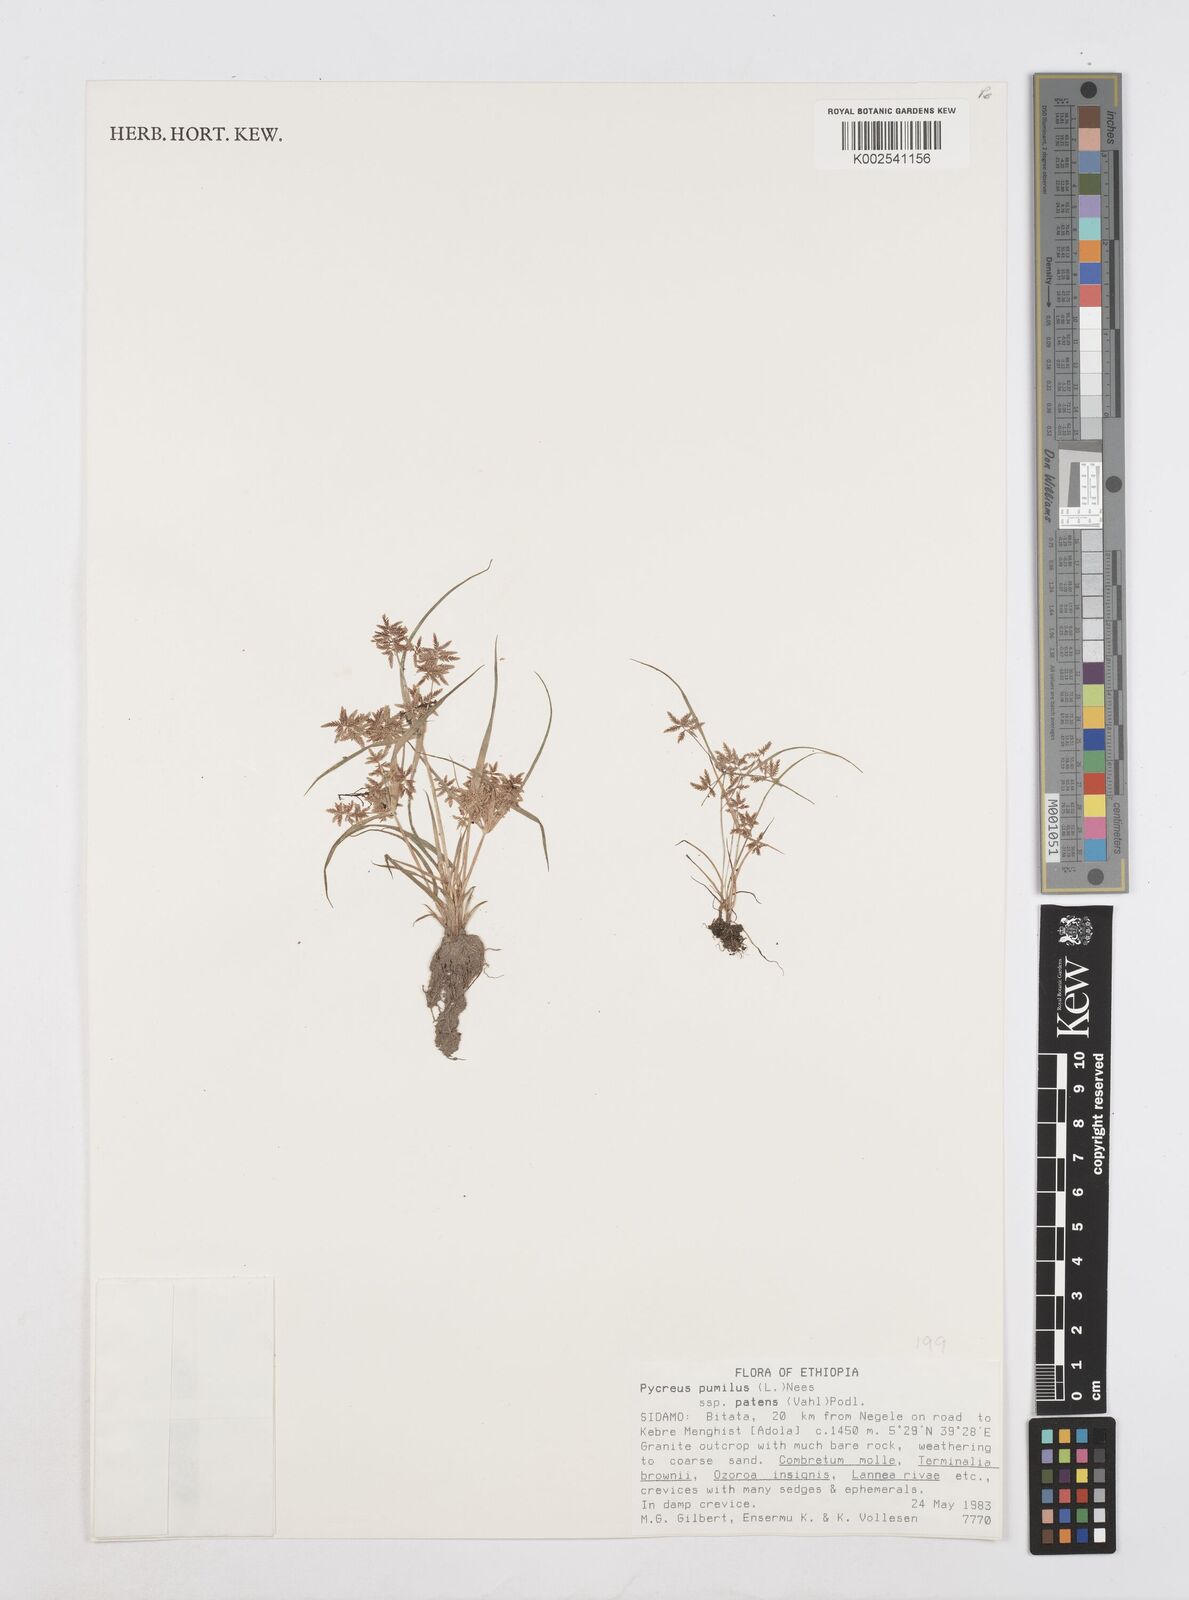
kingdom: Plantae
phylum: Tracheophyta
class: Liliopsida
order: Poales
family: Cyperaceae
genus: Cyperus
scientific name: Cyperus pumilus
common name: Low flatsedge
